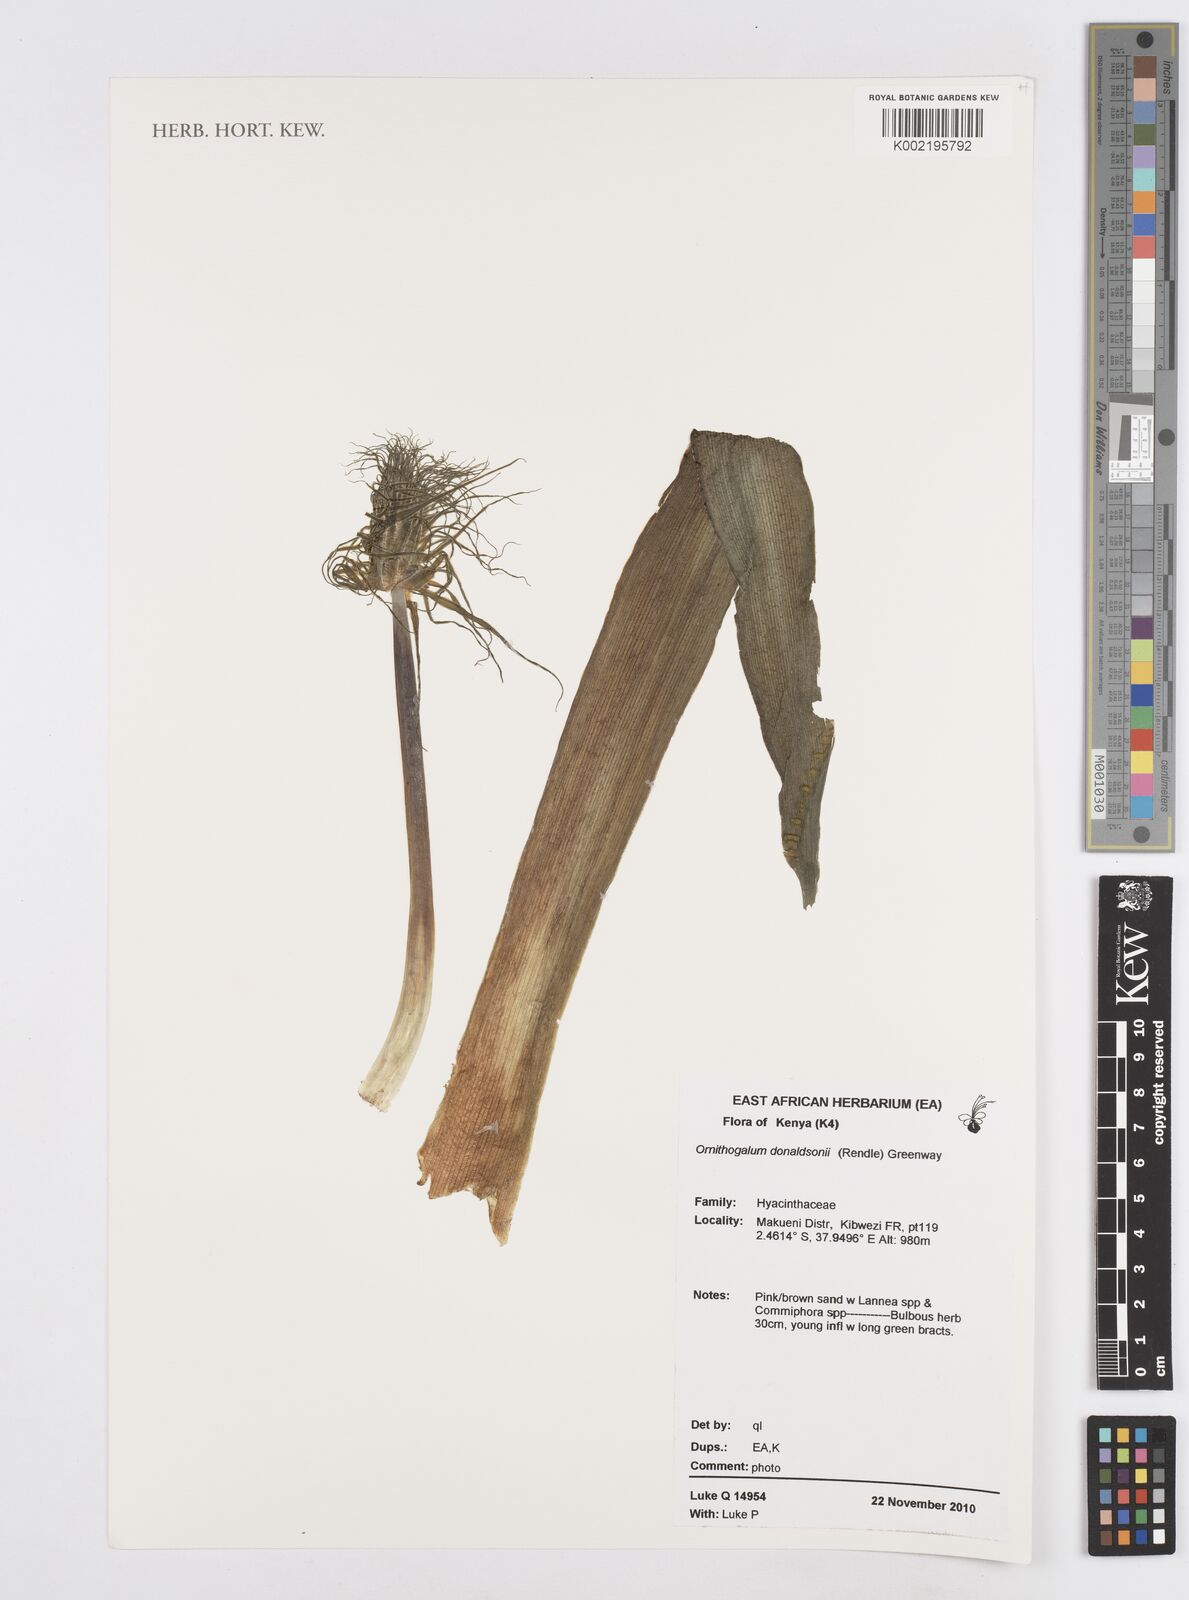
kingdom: Plantae
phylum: Tracheophyta
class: Liliopsida
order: Asparagales
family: Asparagaceae
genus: Albuca
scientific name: Albuca donaldsonii
